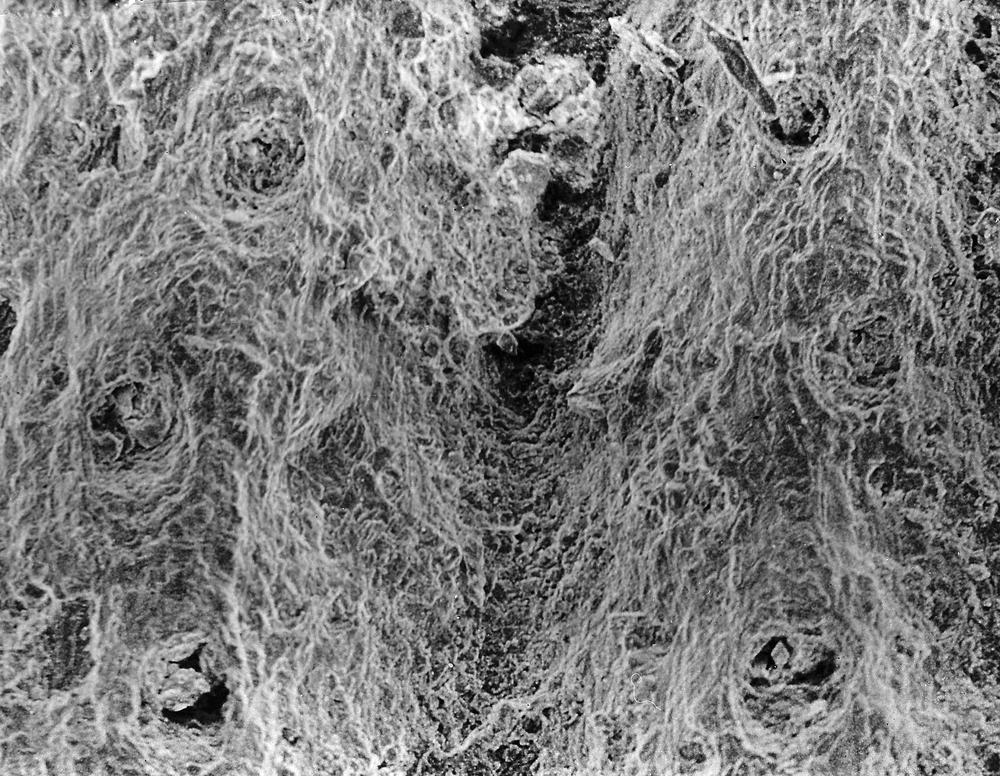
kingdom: Animalia
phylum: Brachiopoda
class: Rhynchonellata
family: Dalmanellidae
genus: Paucicrura
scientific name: Paucicrura Onniella navicula
